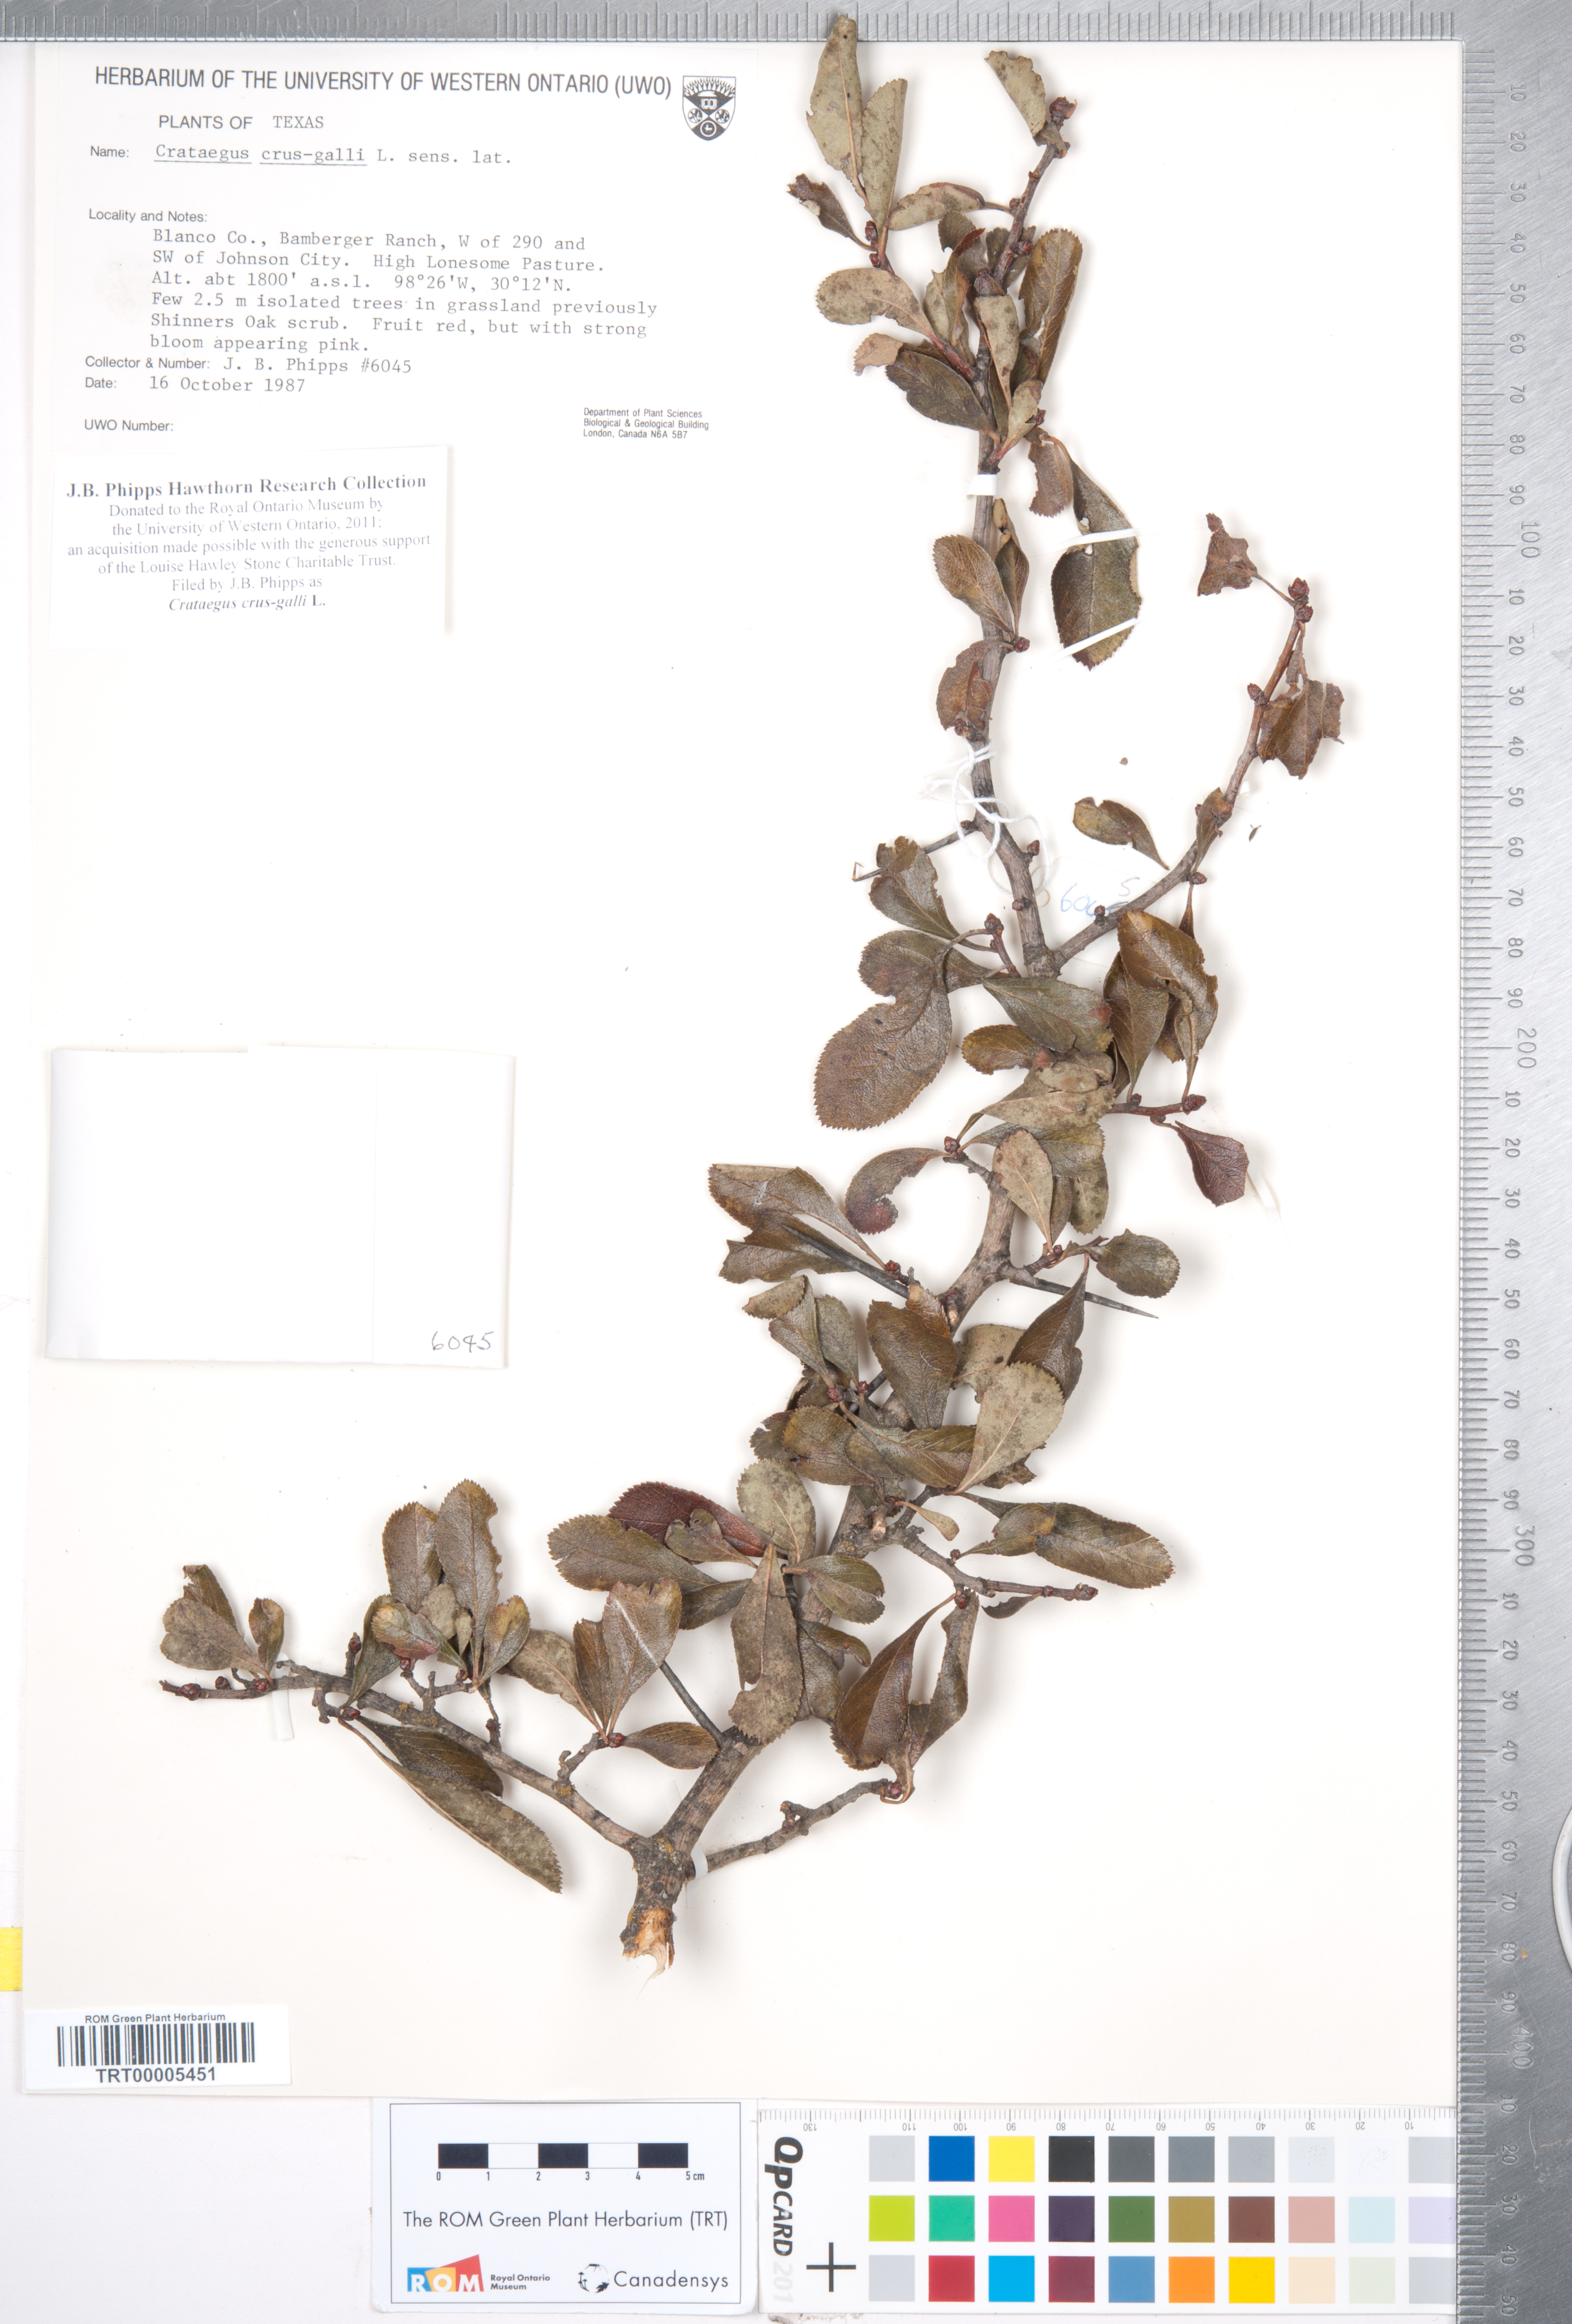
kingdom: Plantae
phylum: Tracheophyta
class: Magnoliopsida
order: Rosales
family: Rosaceae
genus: Crataegus
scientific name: Crataegus crus-galli
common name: Cockspurthorn
